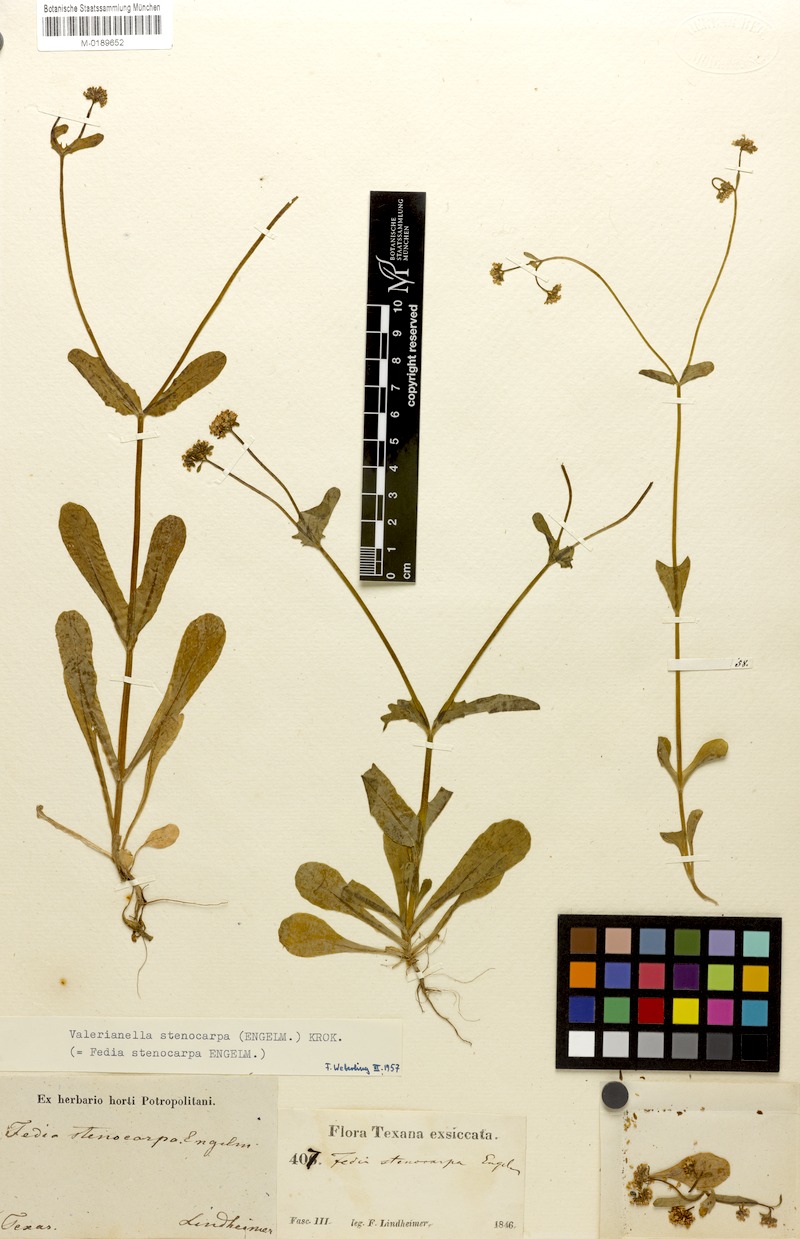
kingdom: Plantae
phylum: Tracheophyta
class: Magnoliopsida
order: Dipsacales
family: Caprifoliaceae
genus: Valerianella
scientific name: Valerianella stenocarpa
